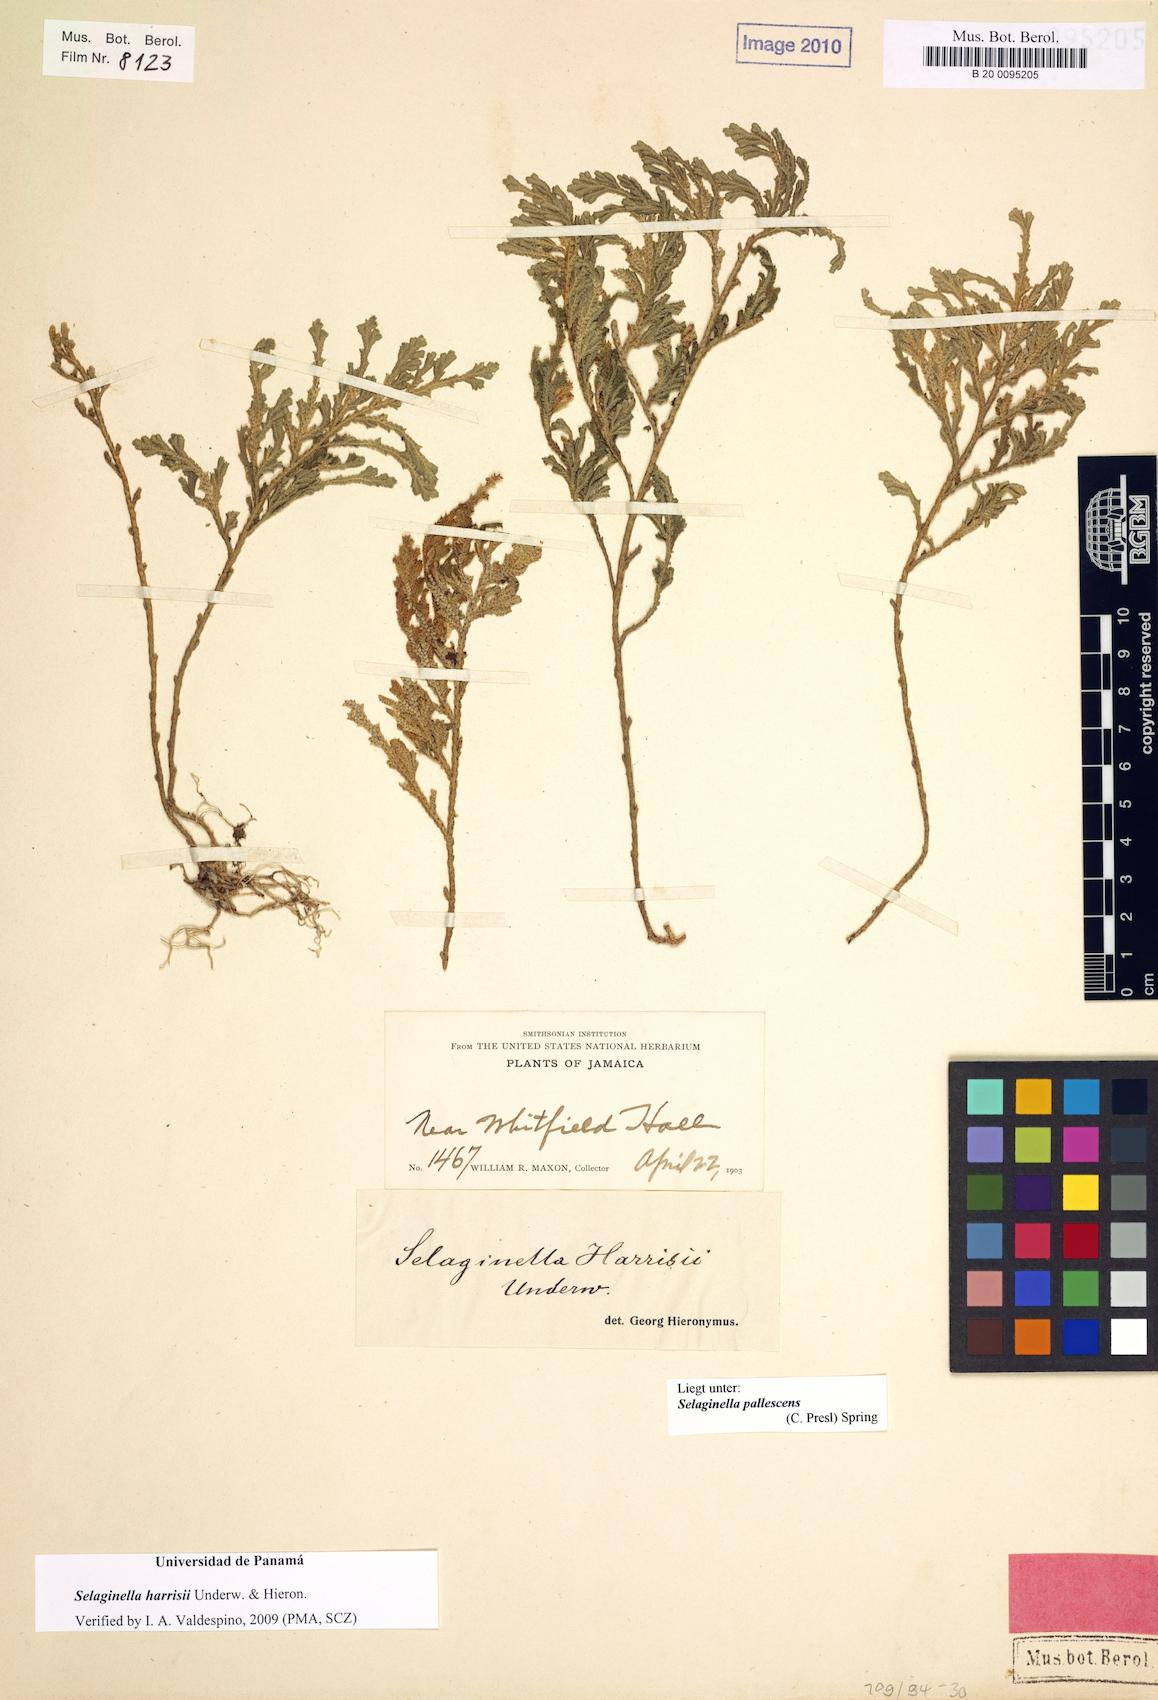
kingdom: Plantae
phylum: Tracheophyta
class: Lycopodiopsida
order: Selaginellales
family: Selaginellaceae
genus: Selaginella
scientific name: Selaginella harrisii
